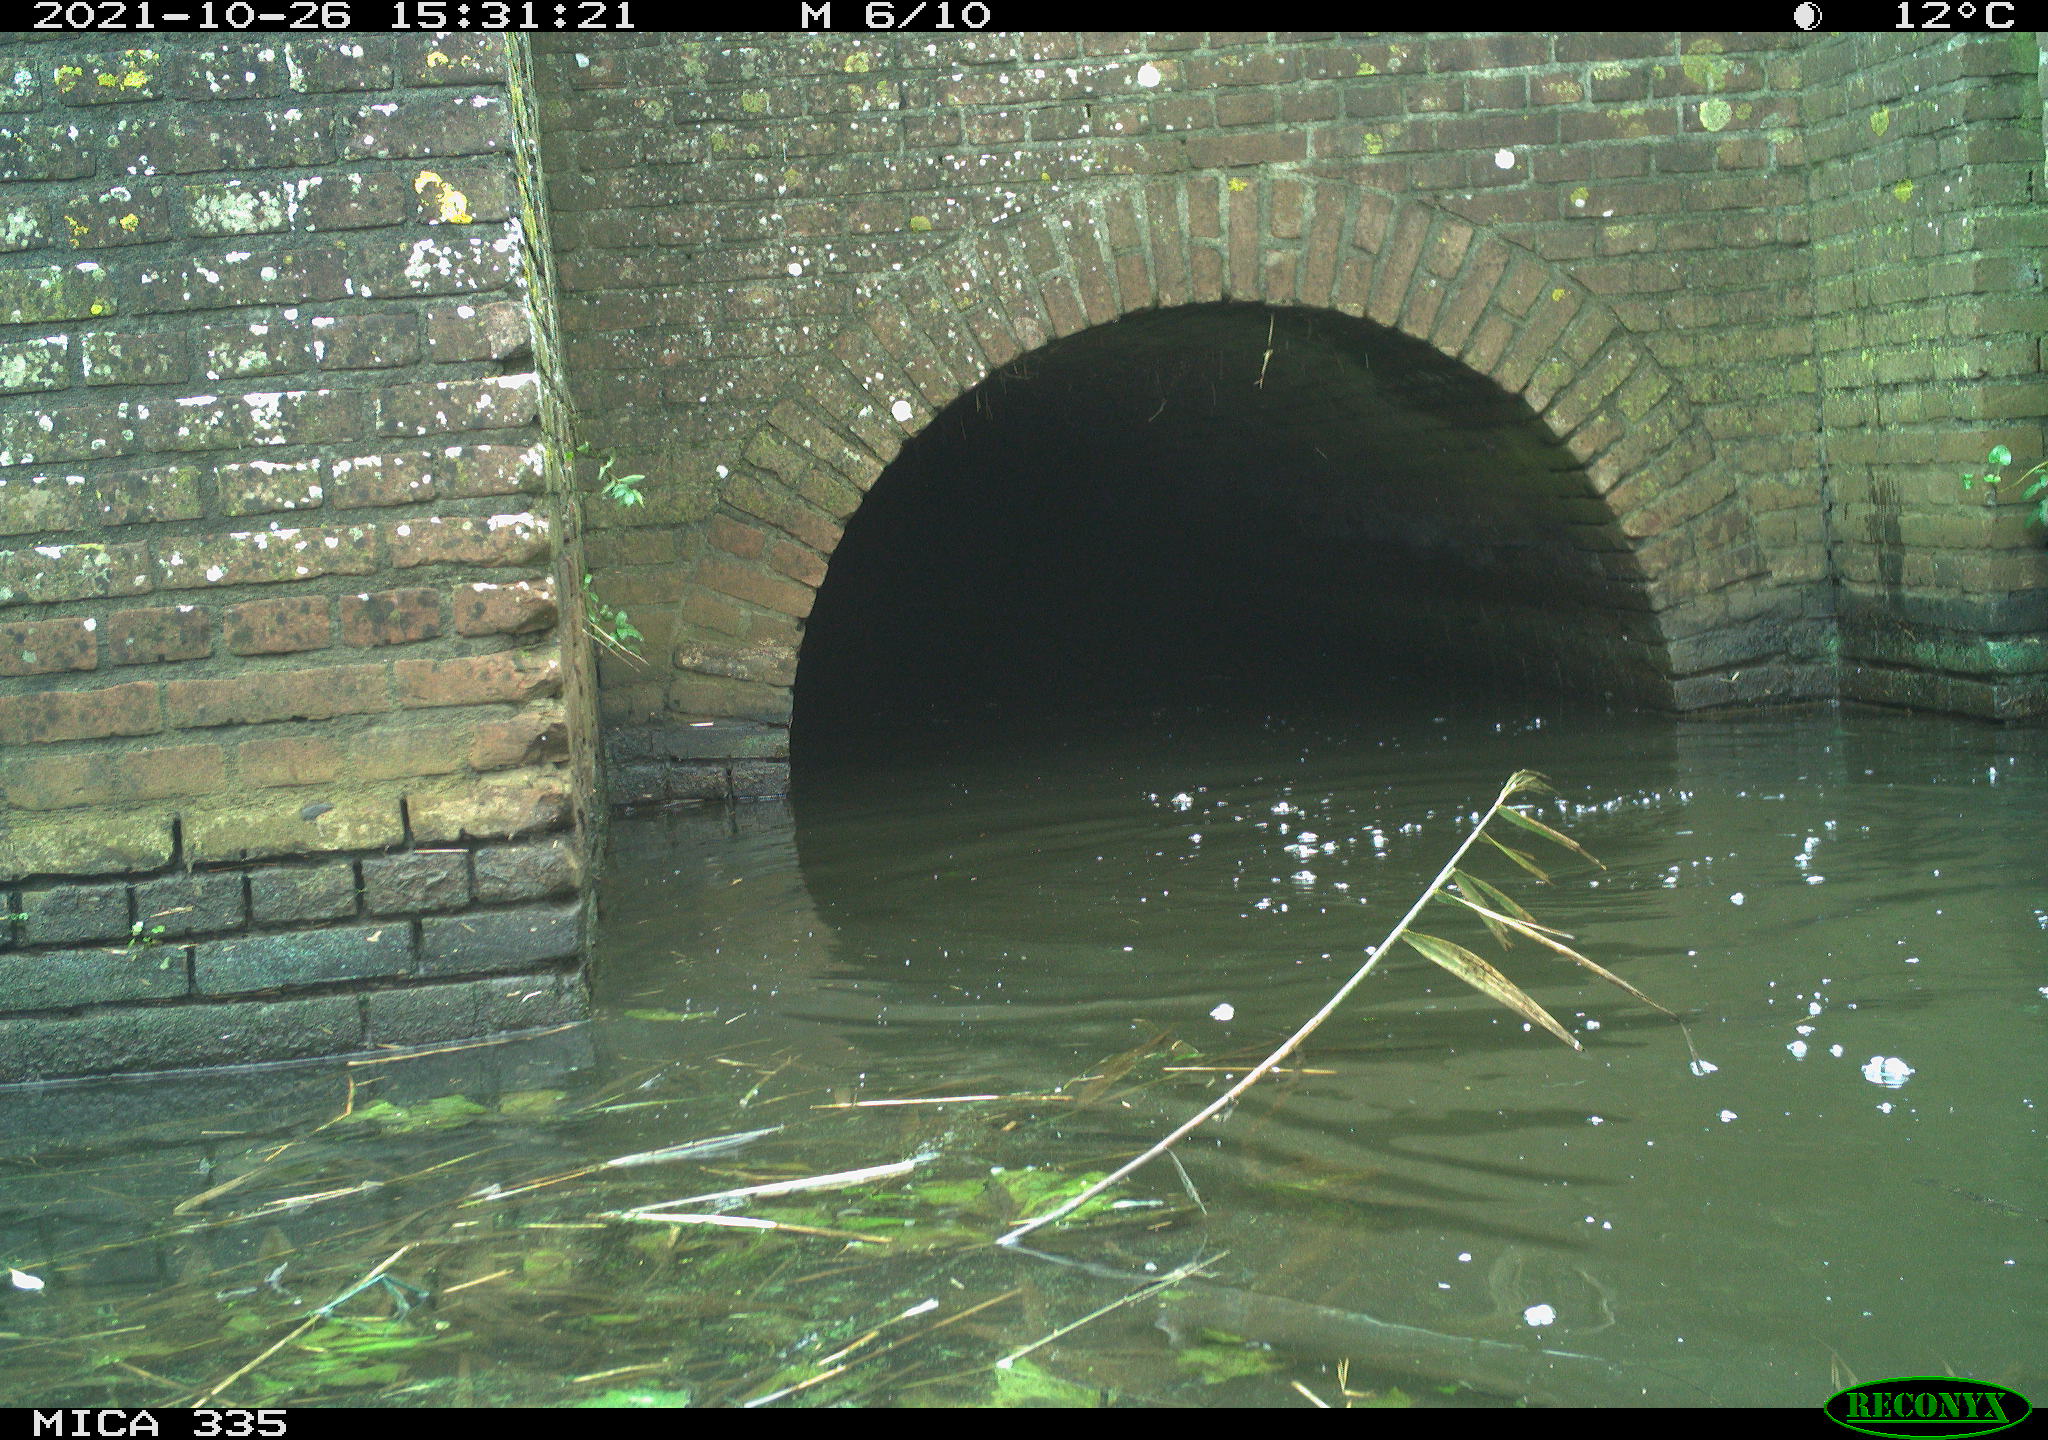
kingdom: Animalia
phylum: Chordata
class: Aves
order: Suliformes
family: Phalacrocoracidae
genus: Phalacrocorax
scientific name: Phalacrocorax carbo
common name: Great cormorant
